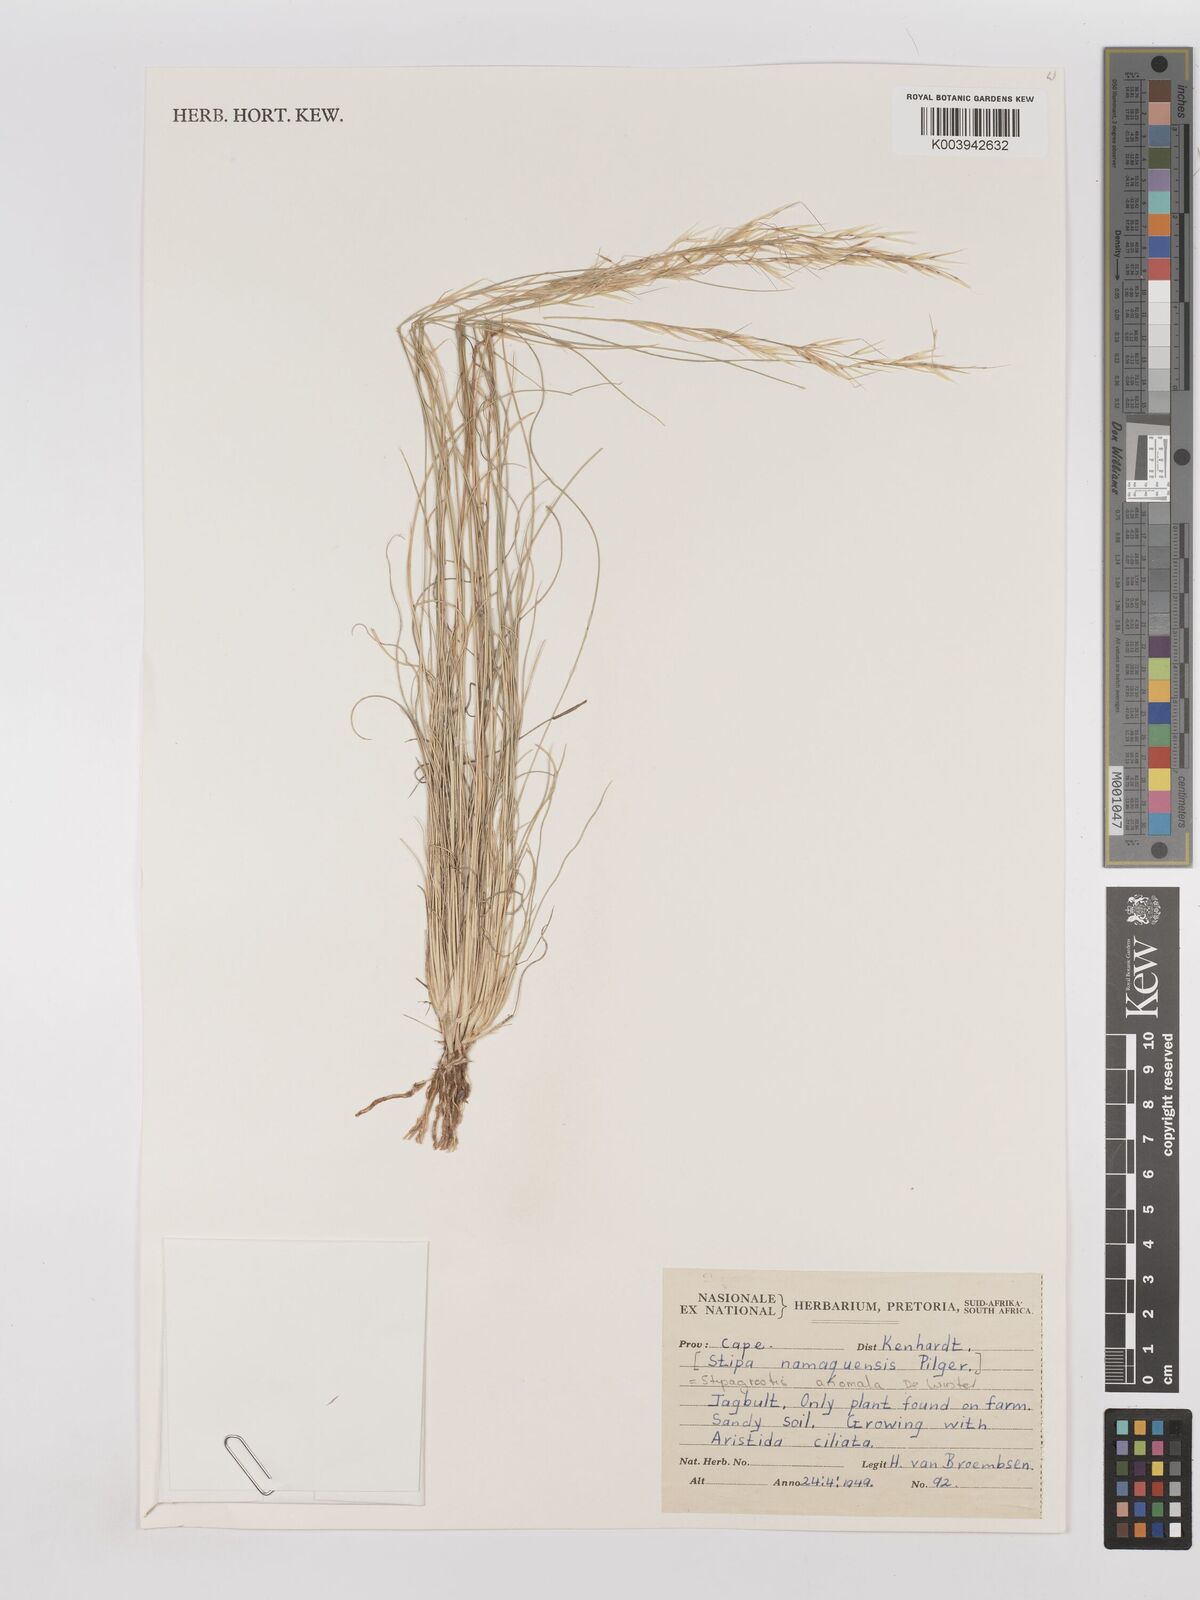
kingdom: Plantae
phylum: Tracheophyta
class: Liliopsida
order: Poales
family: Poaceae
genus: Stipagrostis
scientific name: Stipagrostis anomala
